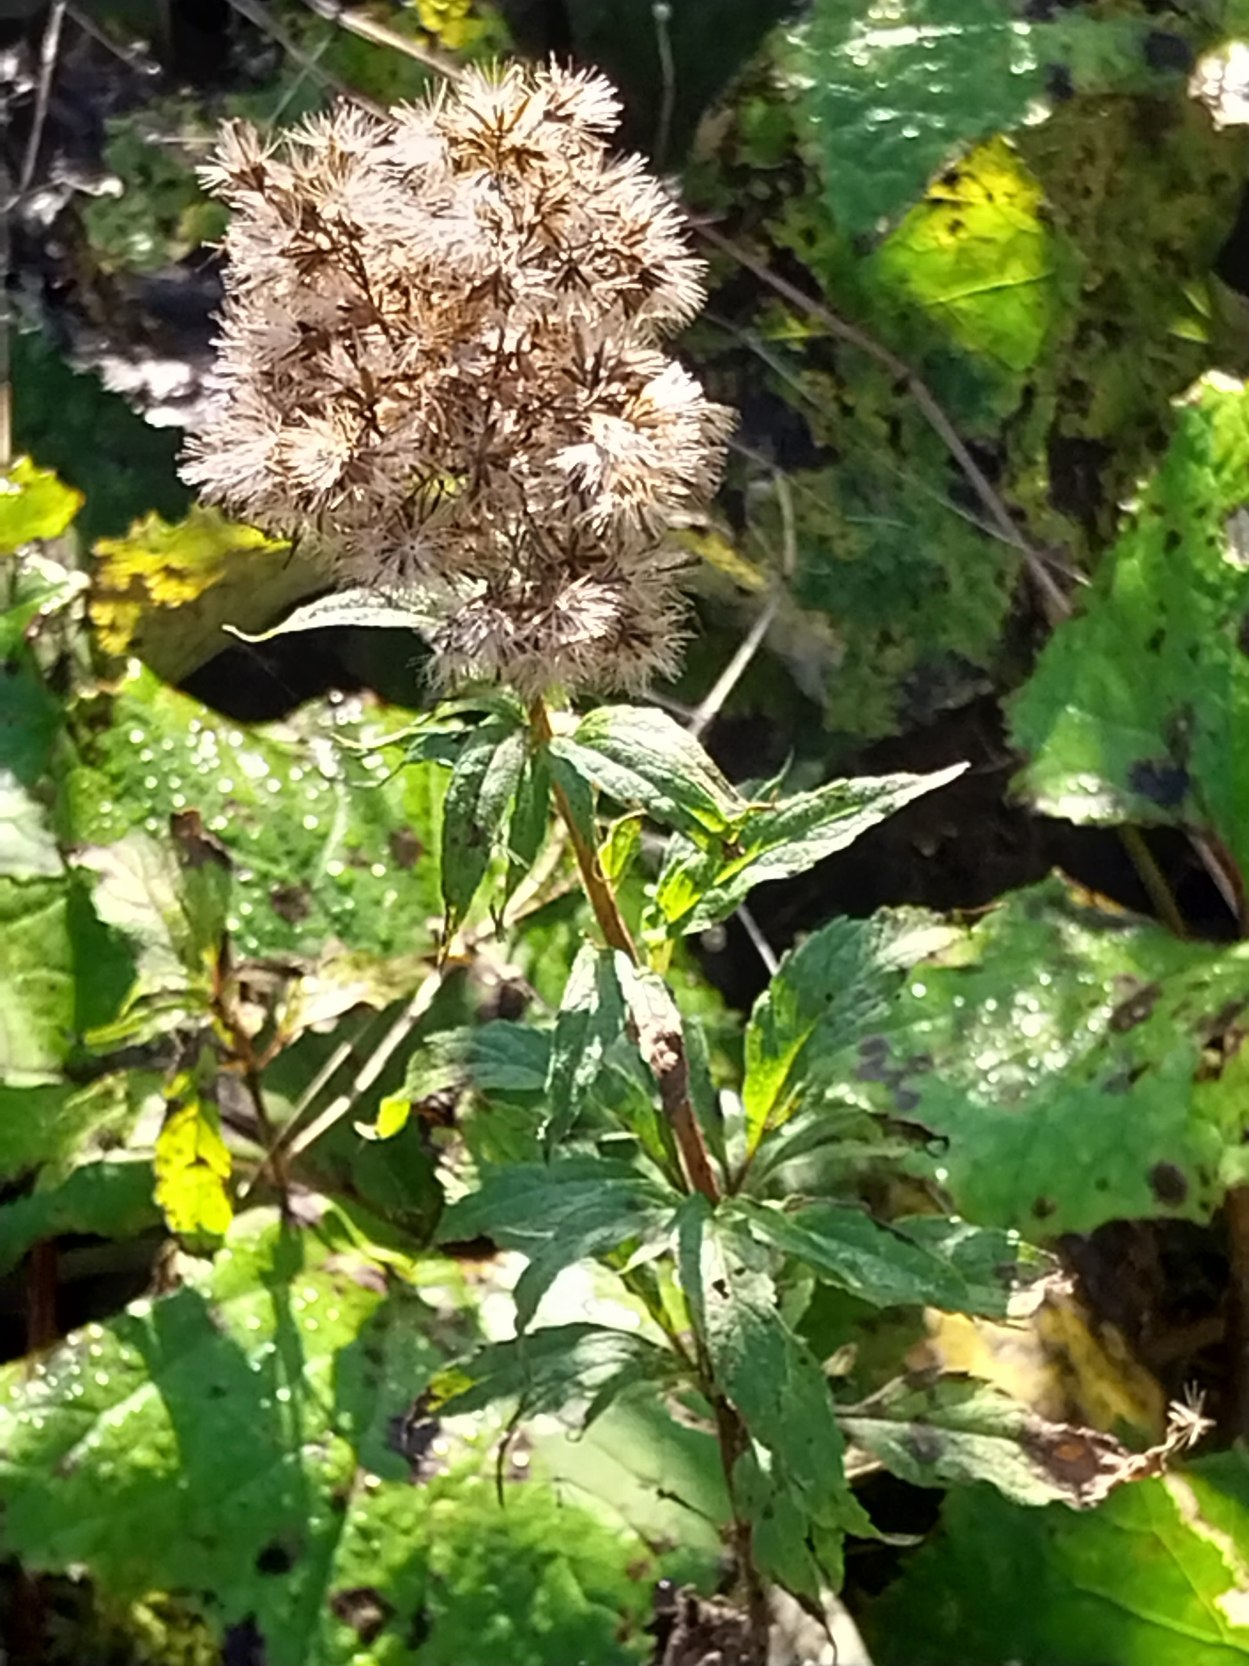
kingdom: Plantae
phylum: Tracheophyta
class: Magnoliopsida
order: Asterales
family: Asteraceae
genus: Eupatorium
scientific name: Eupatorium cannabinum
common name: Hjortetrøst
